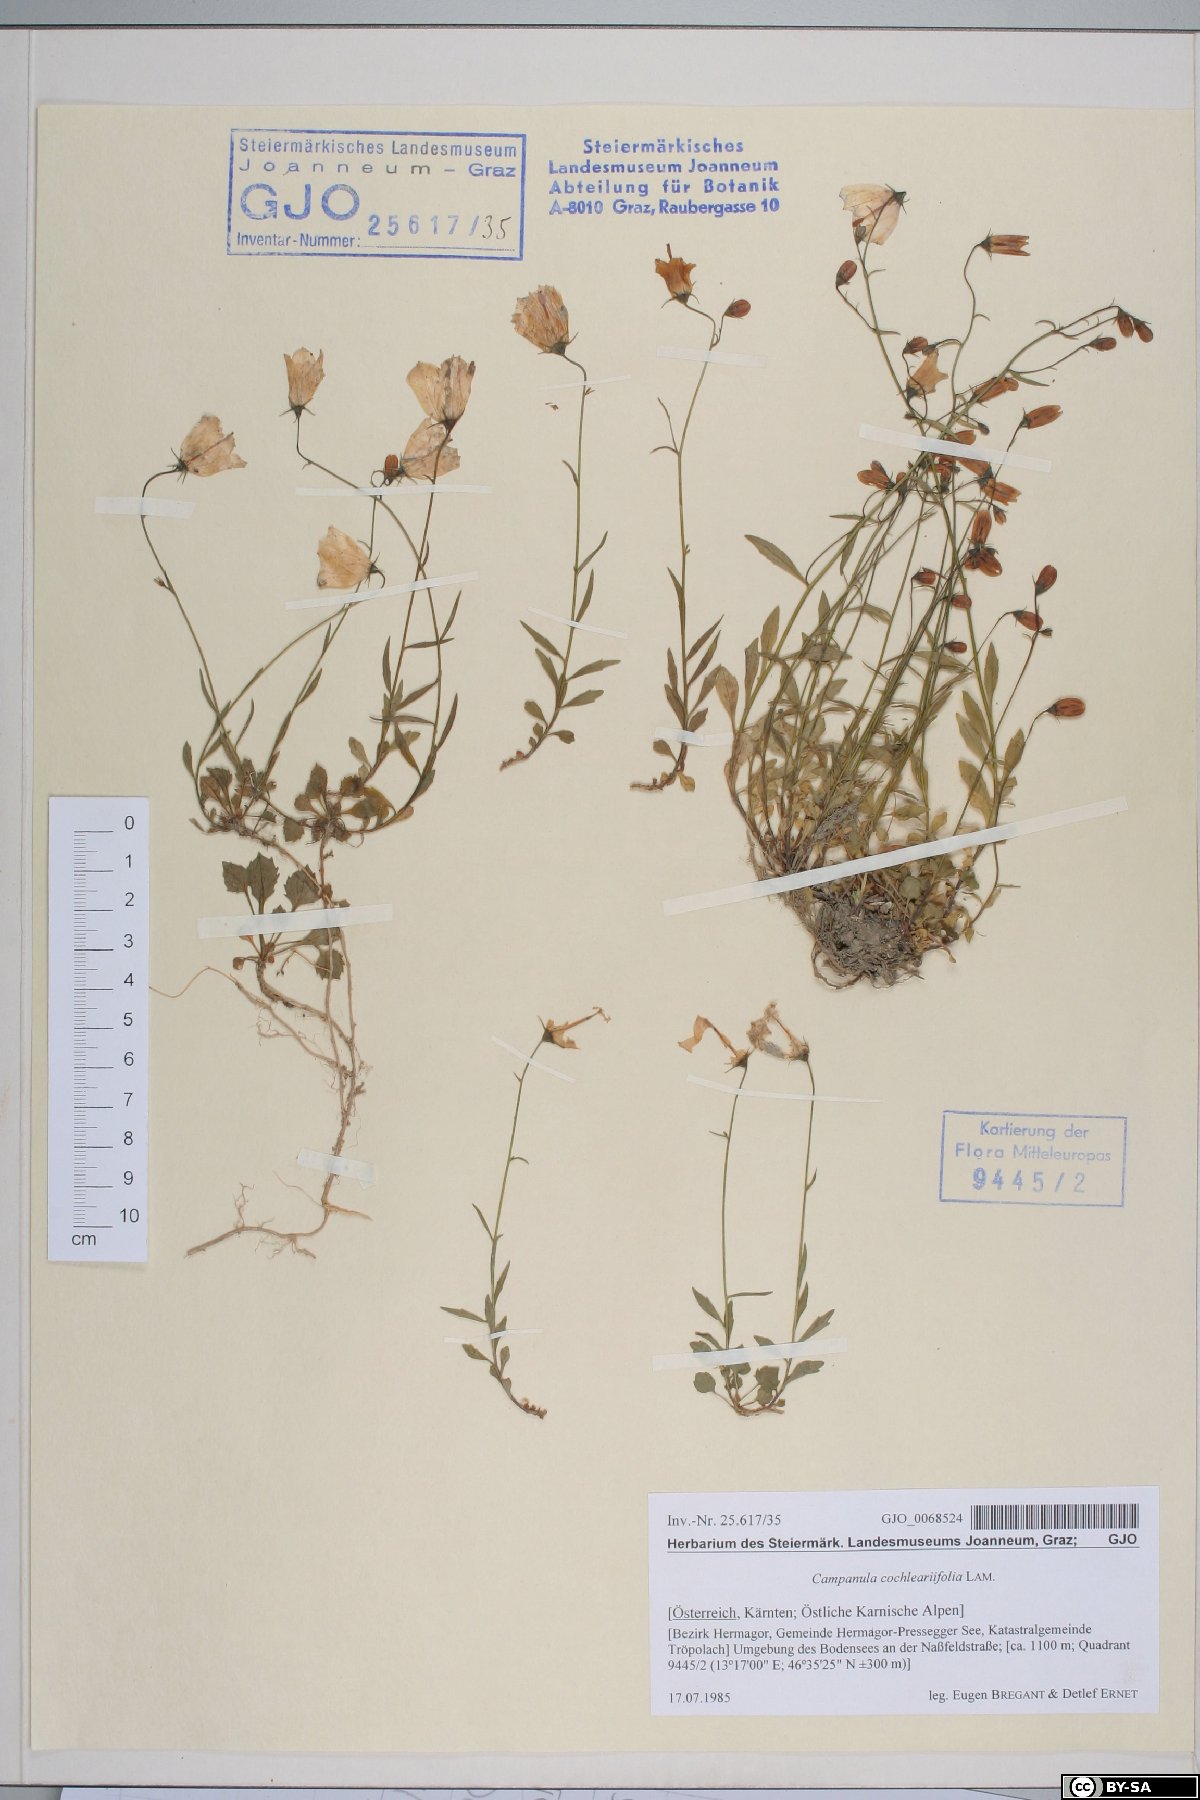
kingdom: Plantae
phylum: Tracheophyta
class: Magnoliopsida
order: Asterales
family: Campanulaceae
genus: Campanula
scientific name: Campanula cochleariifolia
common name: Fairies'-thimbles
